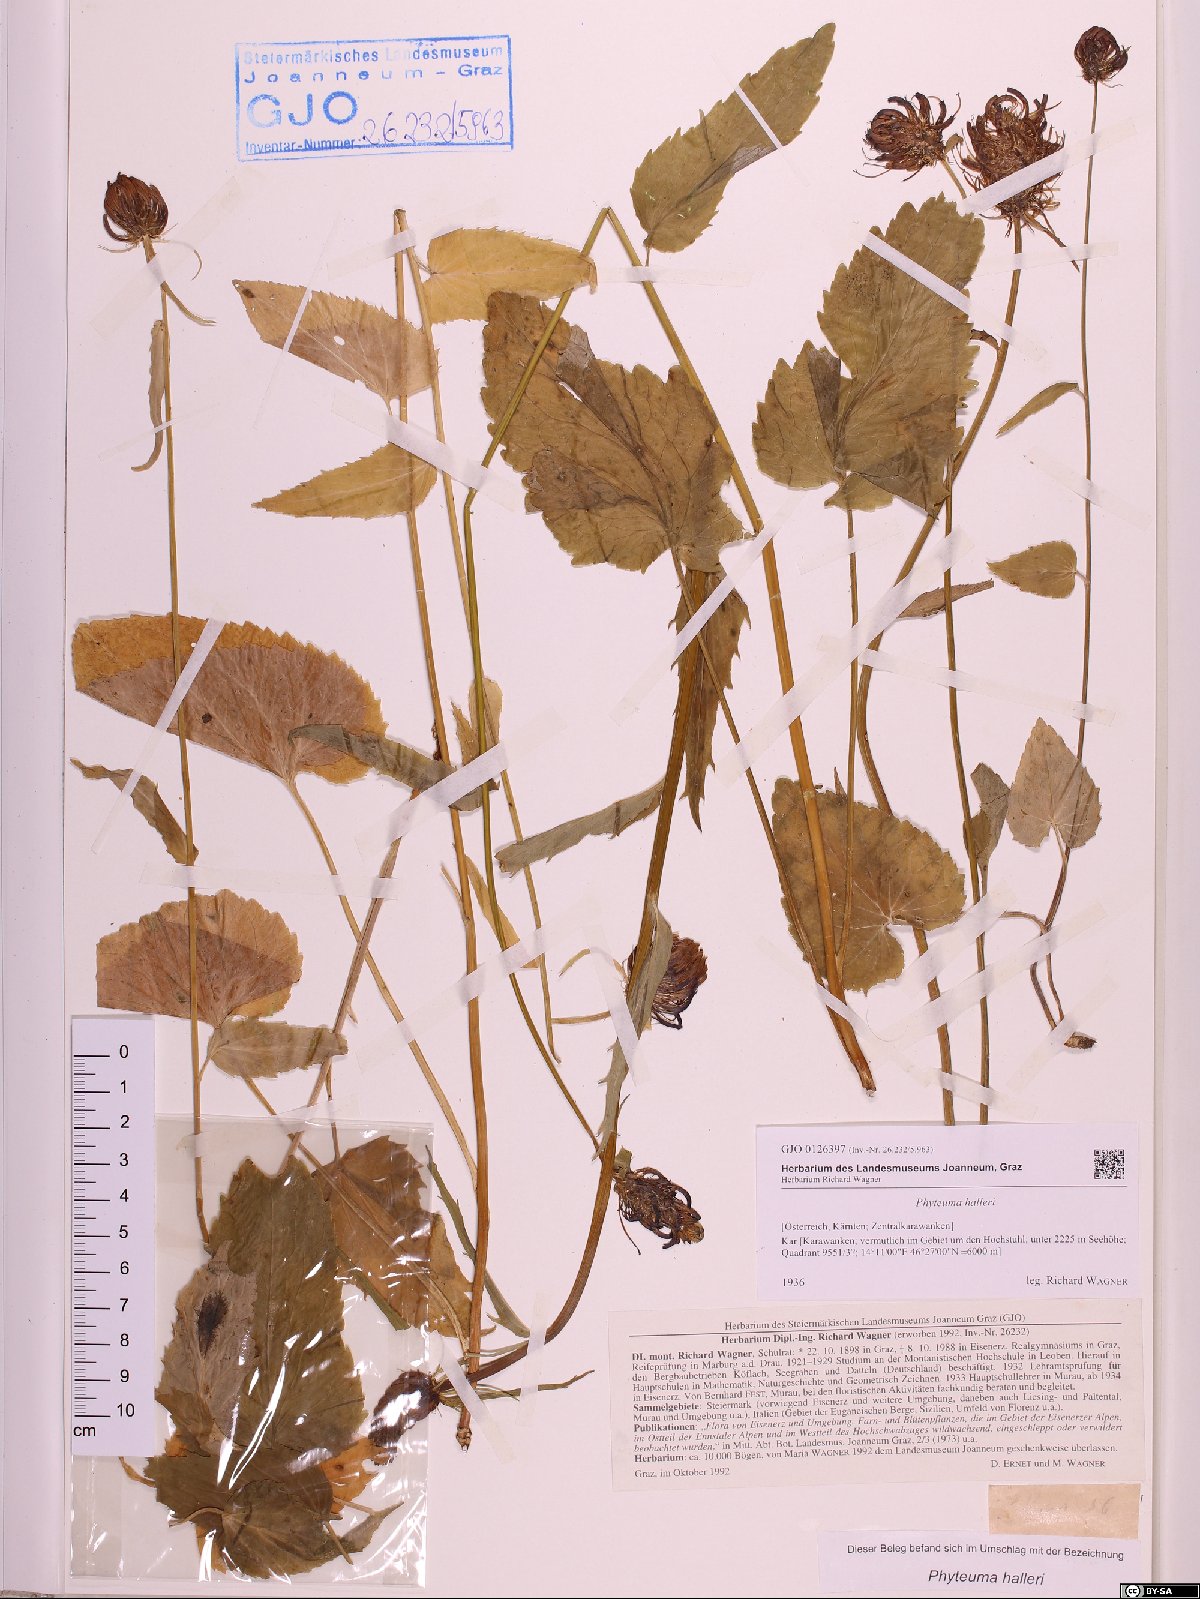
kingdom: Plantae
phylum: Tracheophyta
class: Magnoliopsida
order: Asterales
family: Campanulaceae
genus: Phyteuma
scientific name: Phyteuma ovatum
